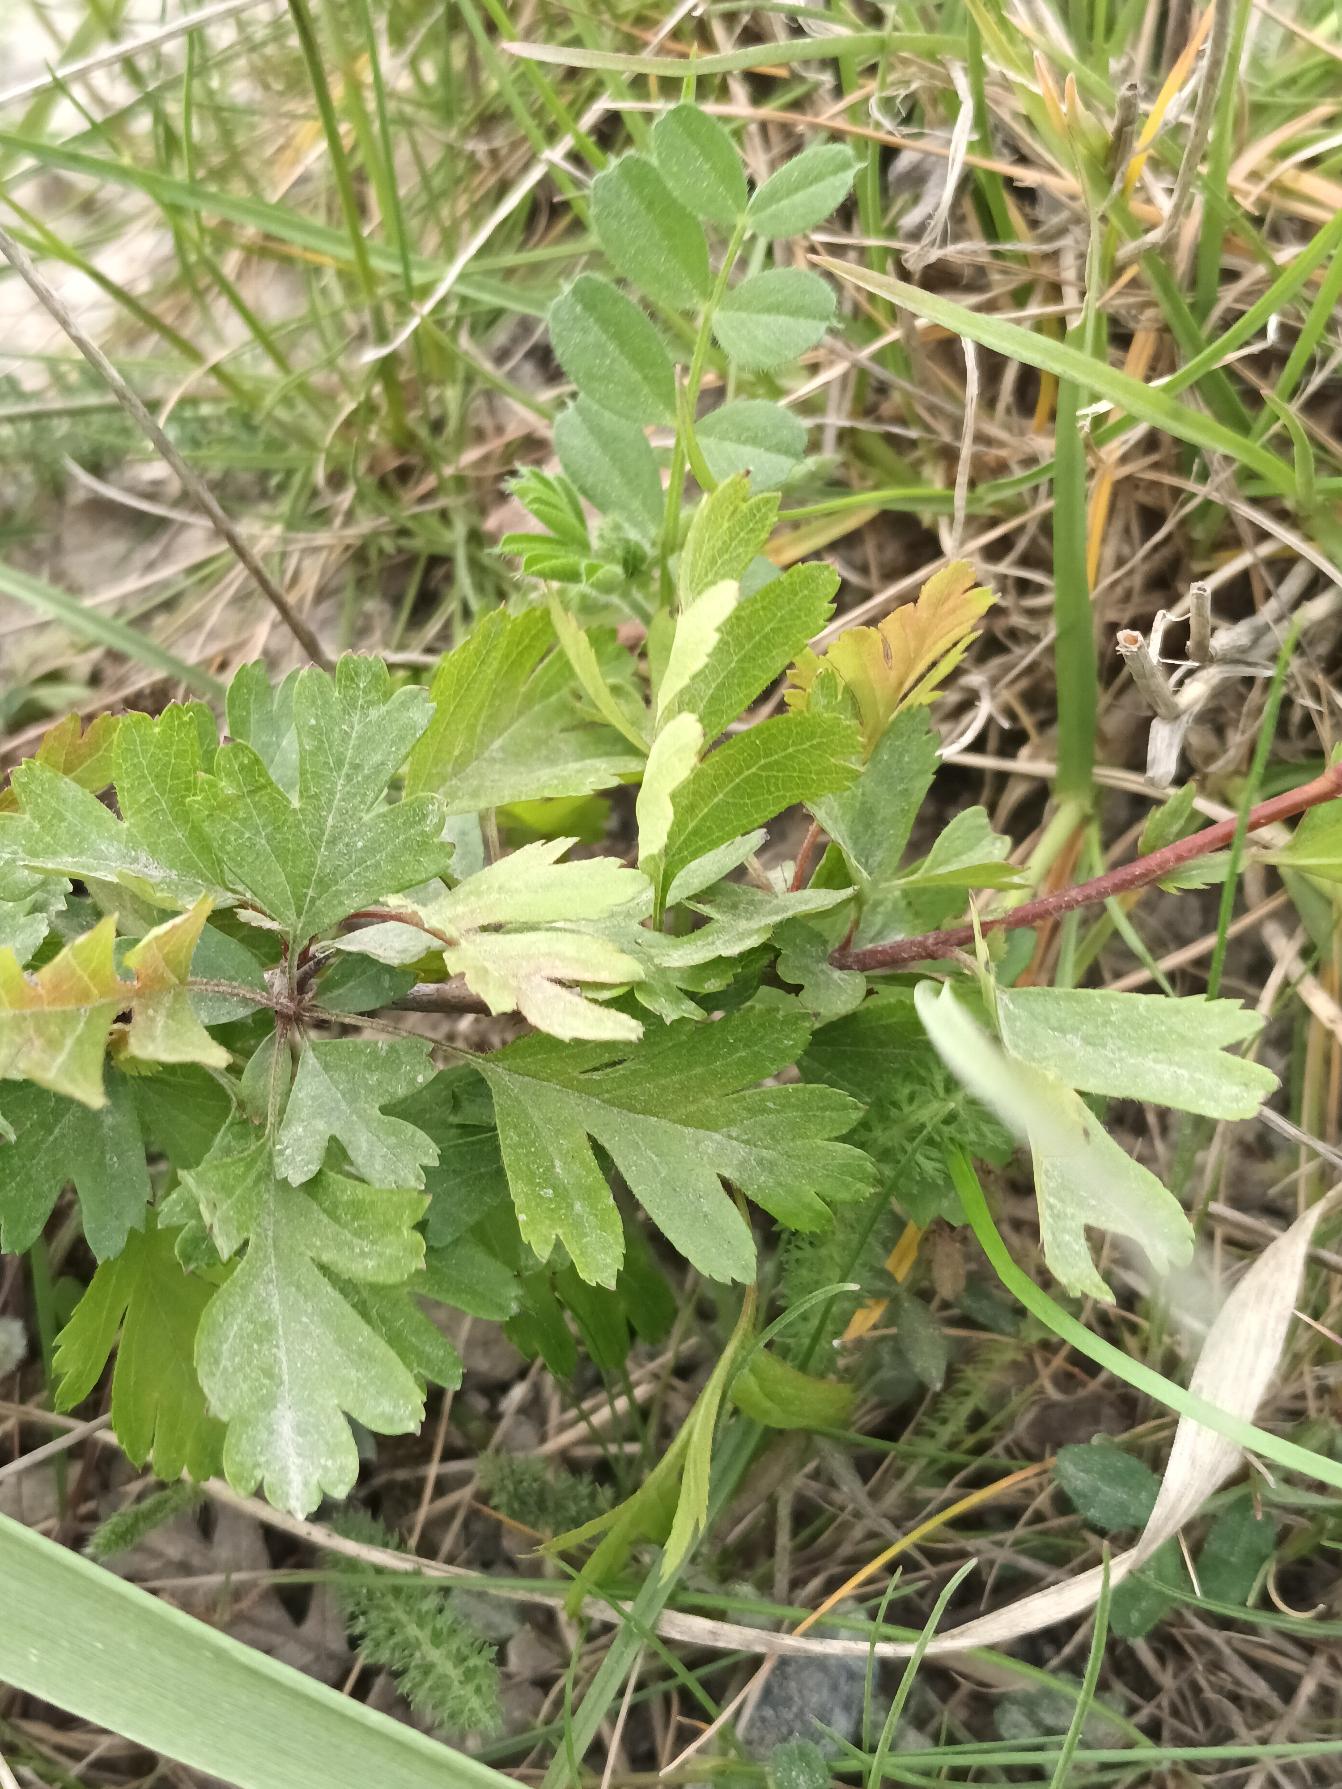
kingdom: Plantae
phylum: Tracheophyta
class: Magnoliopsida
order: Rosales
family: Rosaceae
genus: Crataegus
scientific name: Crataegus monogyna
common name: Engriflet hvidtjørn
